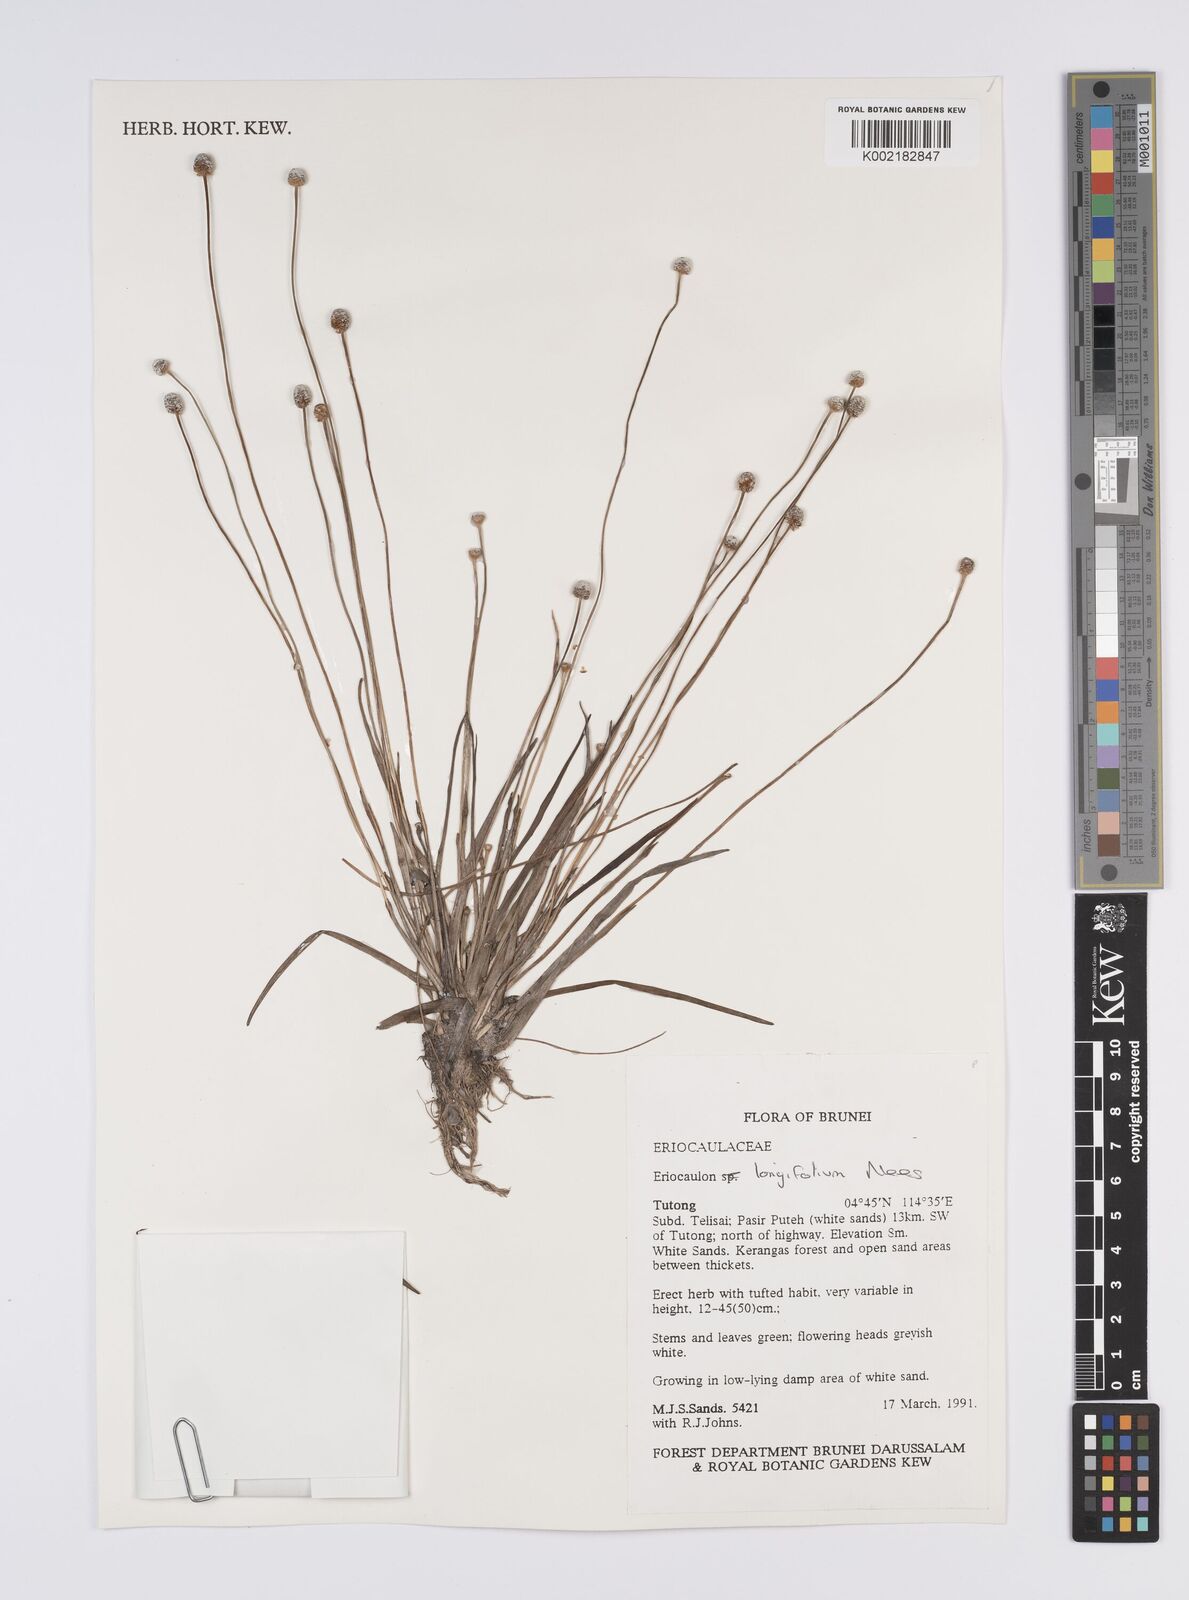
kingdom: Plantae
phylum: Tracheophyta
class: Liliopsida
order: Poales
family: Eriocaulaceae
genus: Eriocaulon
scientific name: Eriocaulon willdenovianum
